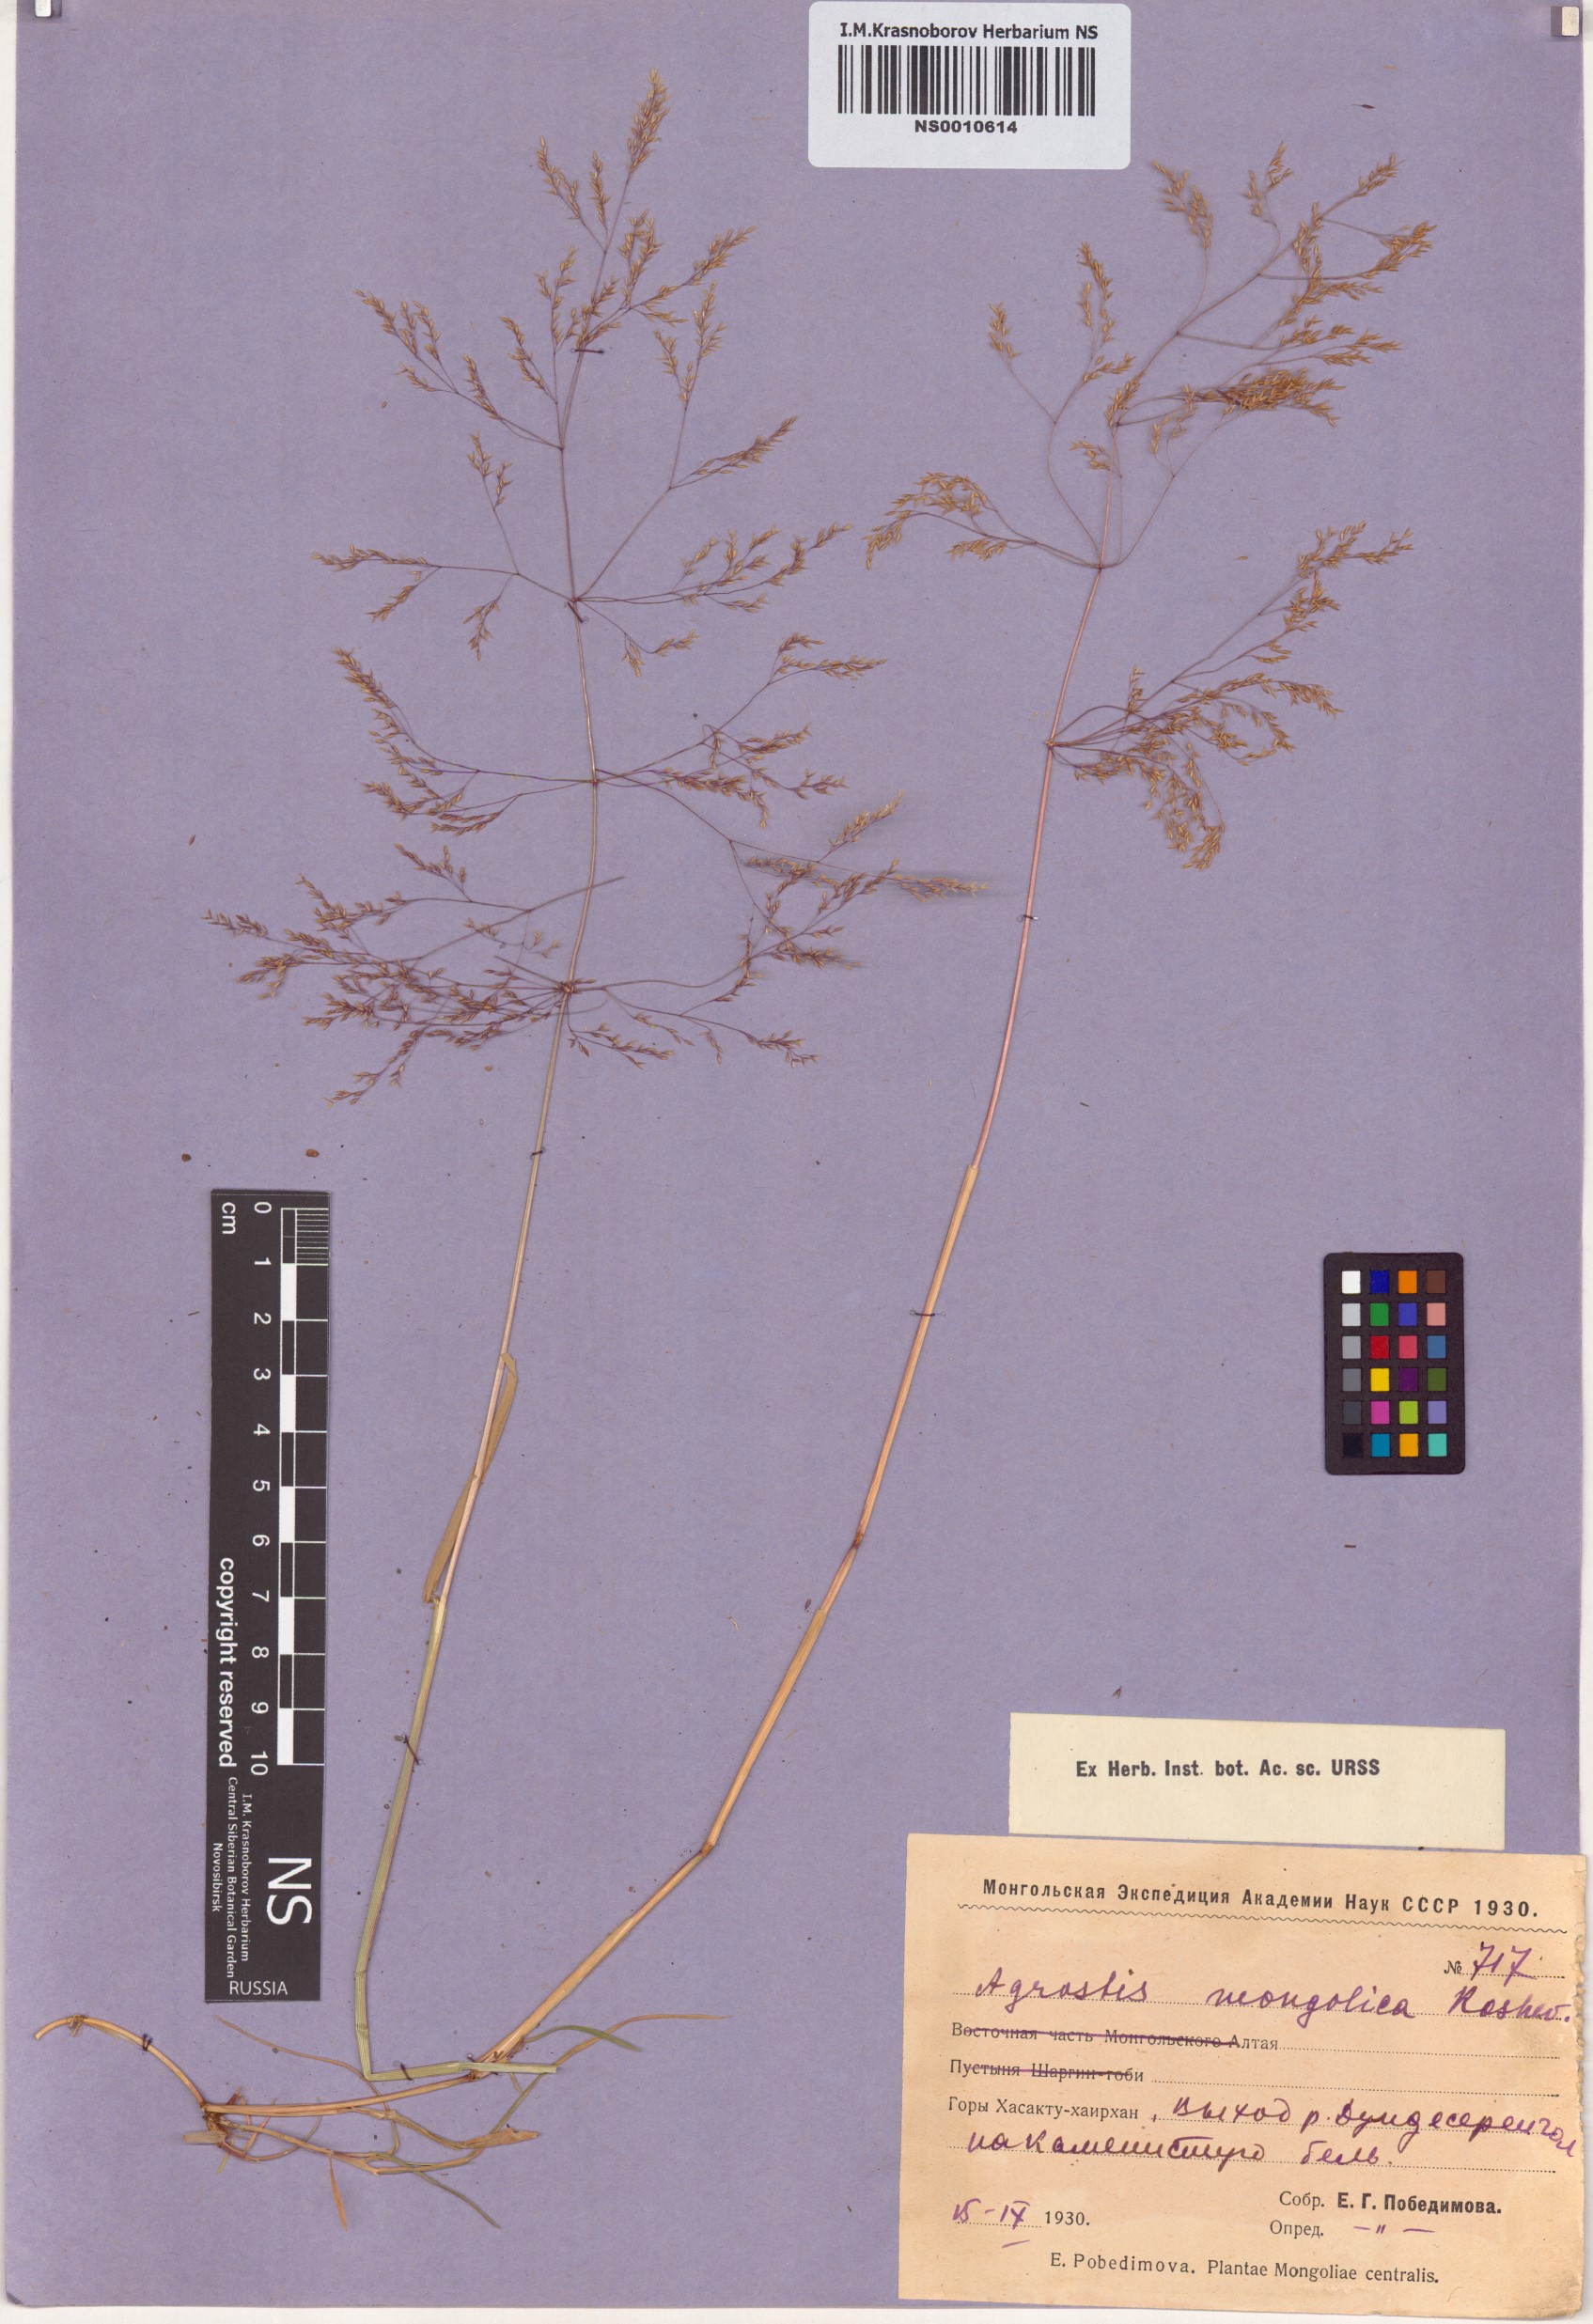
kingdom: Plantae
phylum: Tracheophyta
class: Liliopsida
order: Poales
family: Poaceae
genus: Agrostis
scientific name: Agrostis divaricatissima
